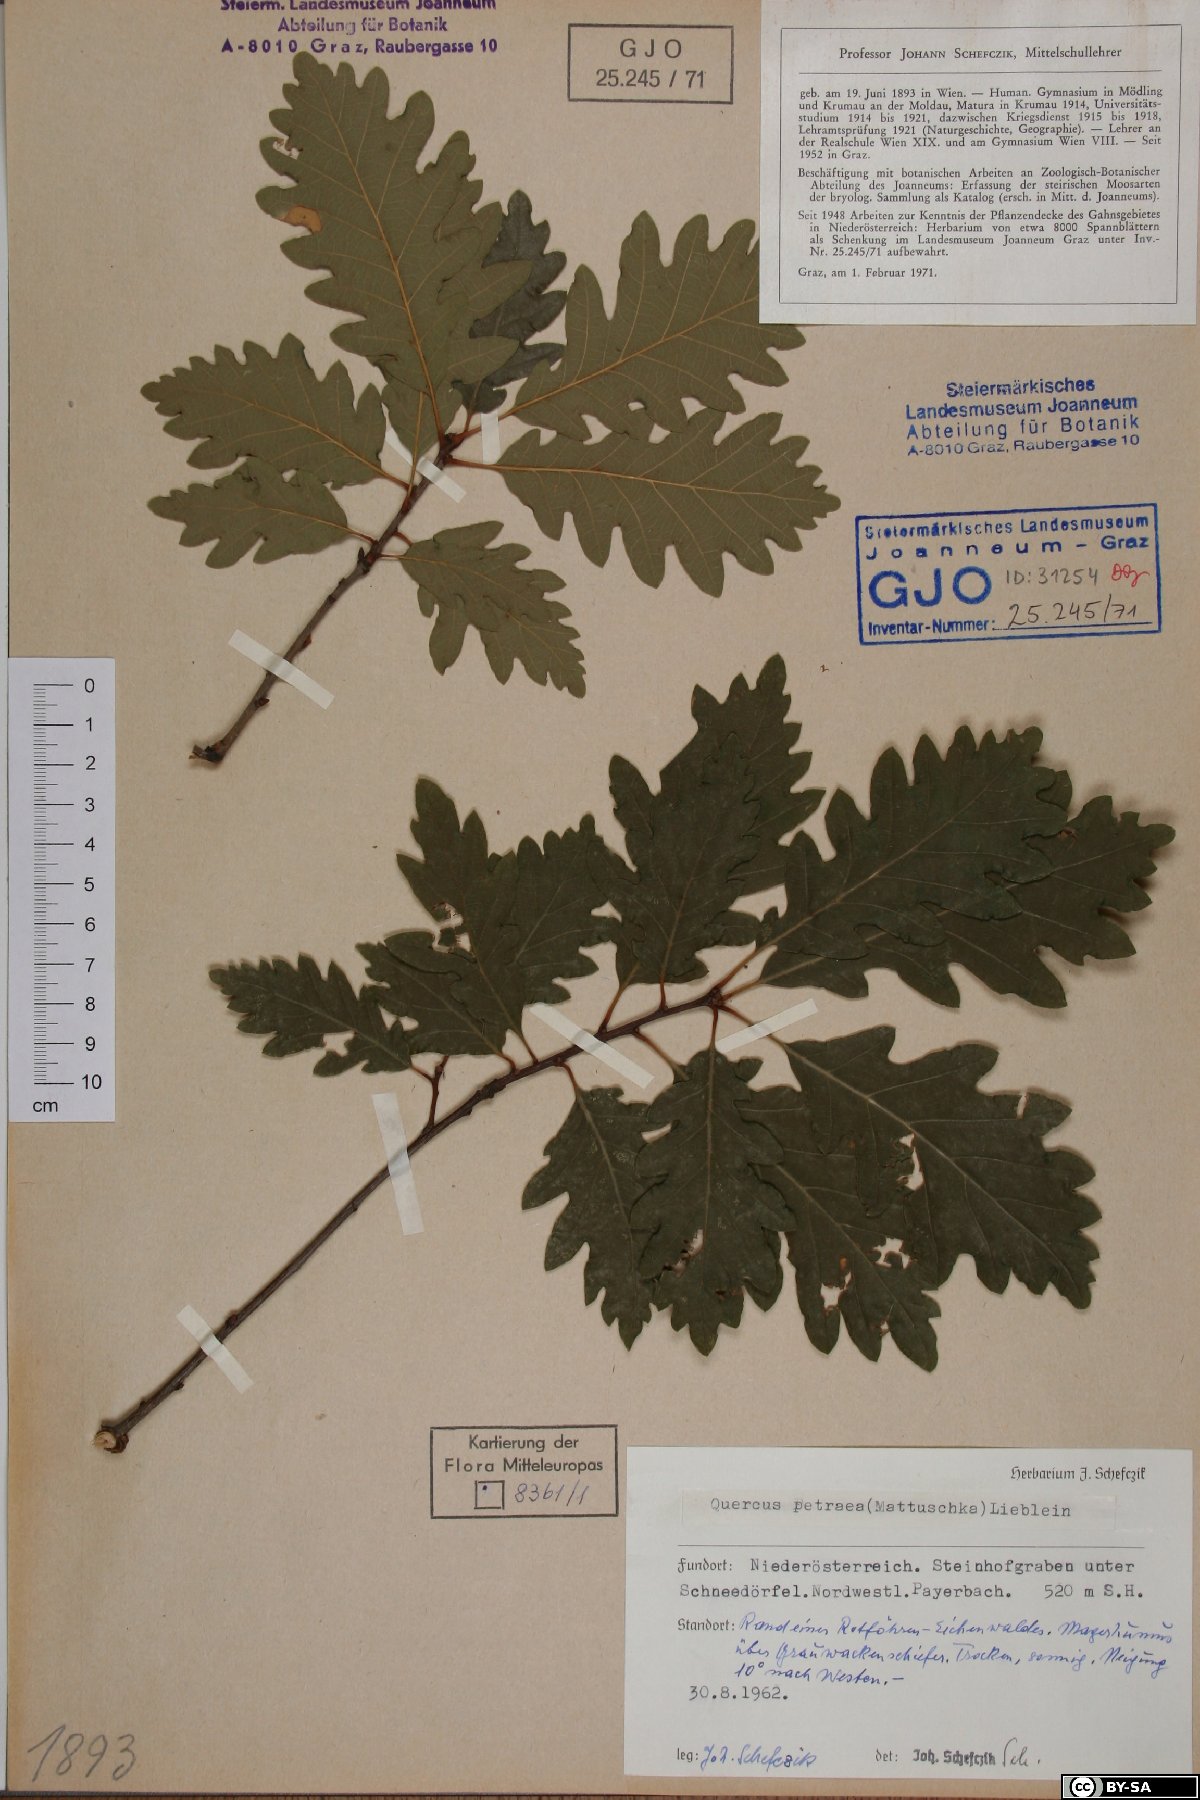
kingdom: Plantae
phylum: Tracheophyta
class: Magnoliopsida
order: Fagales
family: Fagaceae
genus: Quercus
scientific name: Quercus petraea
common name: Sessile oak
